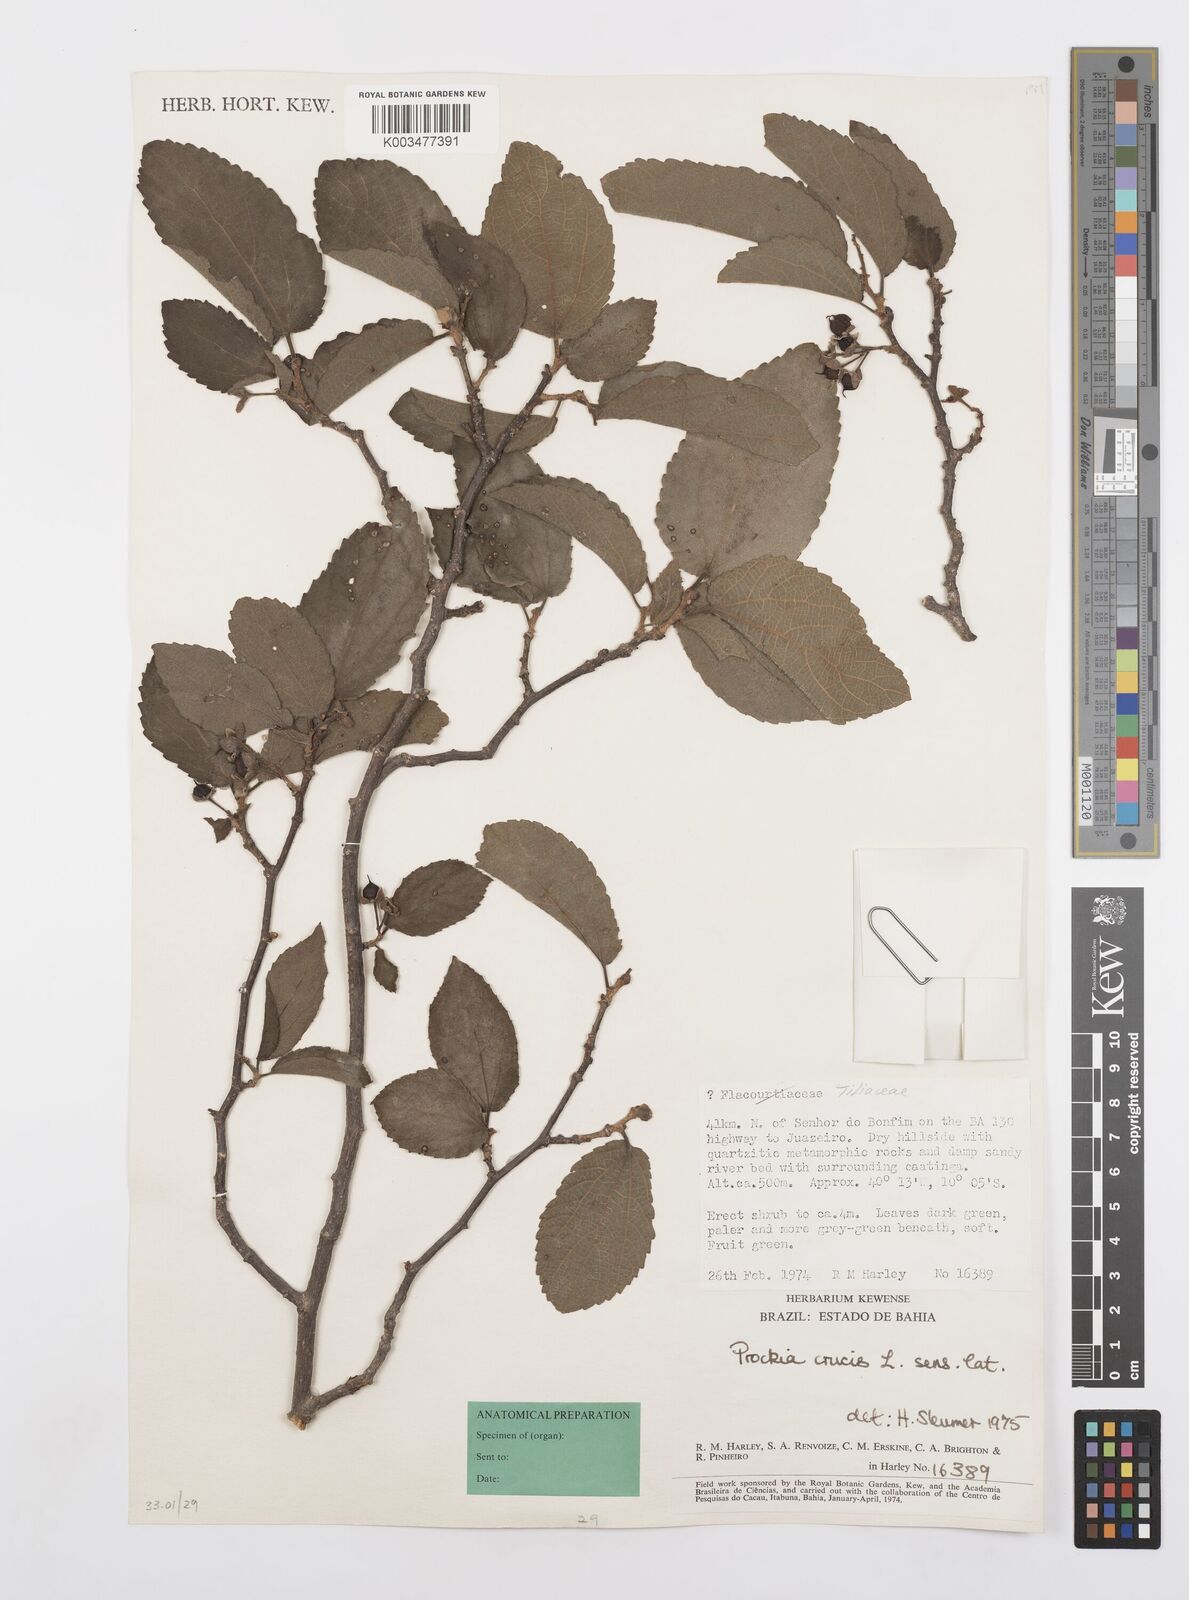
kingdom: Plantae
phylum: Tracheophyta
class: Magnoliopsida
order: Malpighiales
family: Salicaceae
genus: Prockia
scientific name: Prockia crucis
